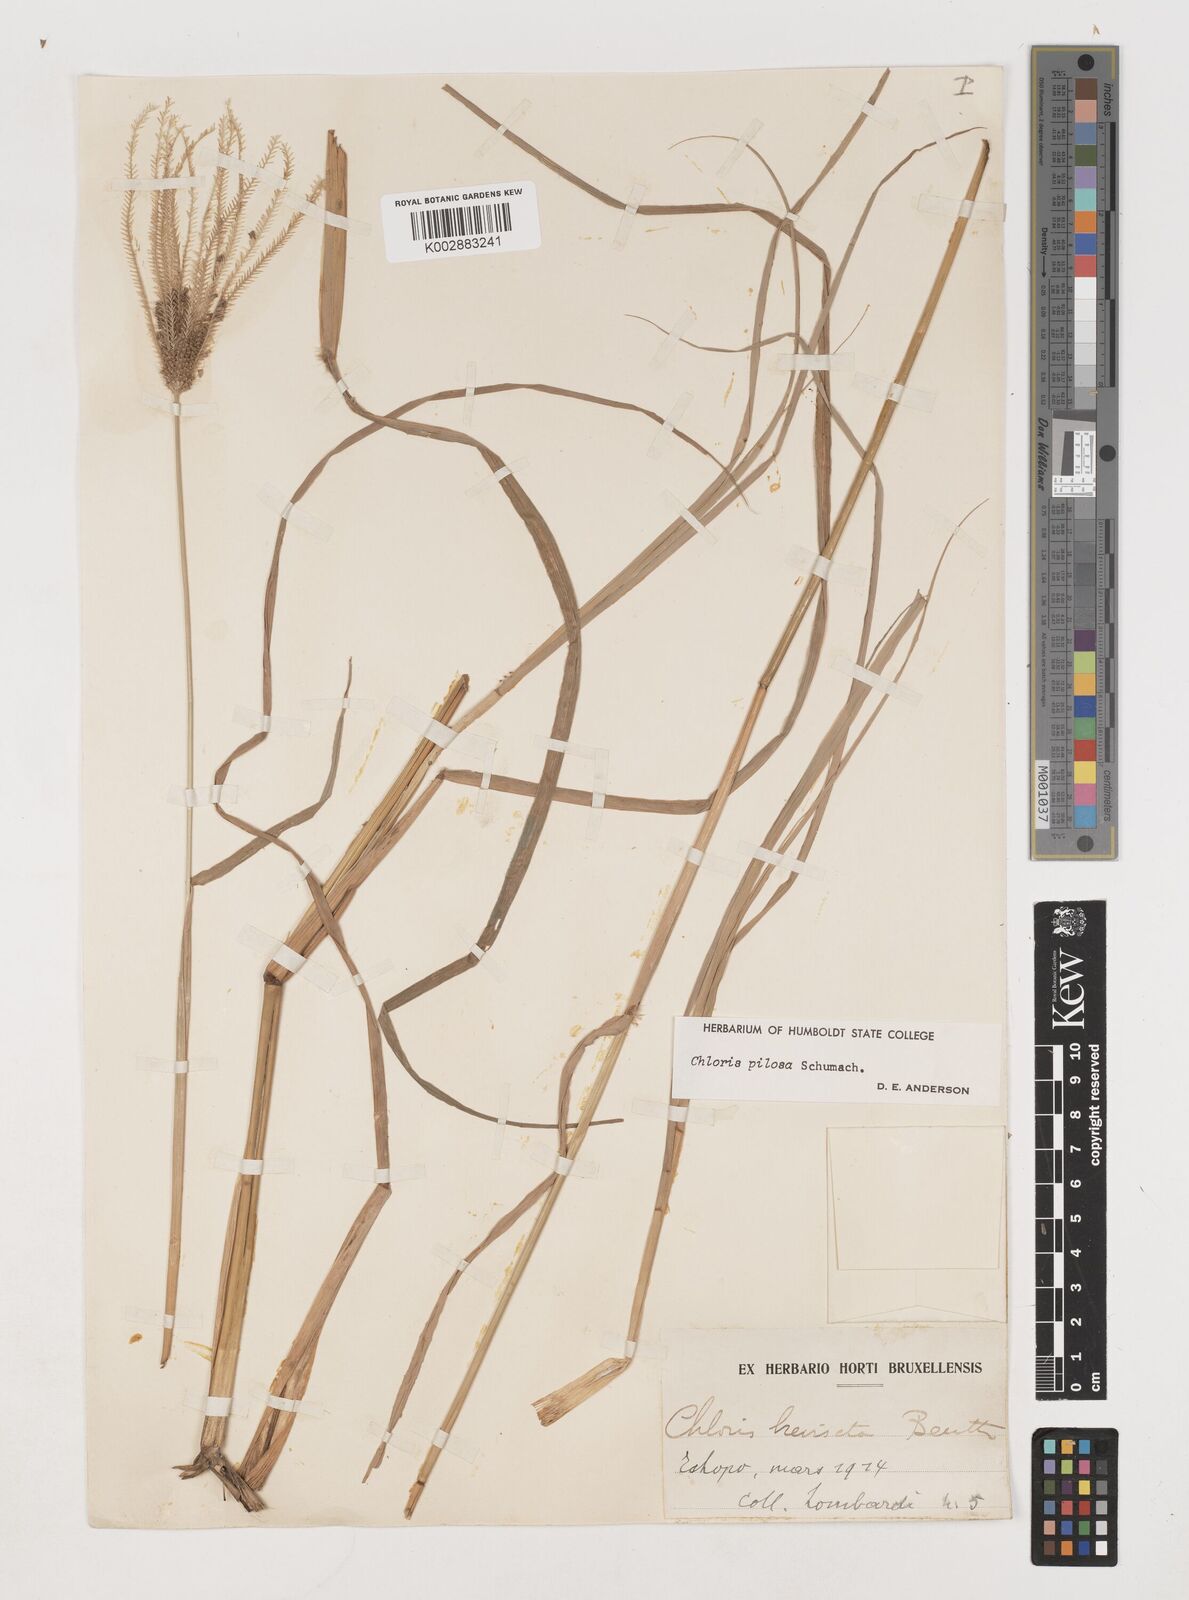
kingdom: Plantae
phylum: Tracheophyta
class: Liliopsida
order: Poales
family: Poaceae
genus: Chloris
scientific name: Chloris pilosa
